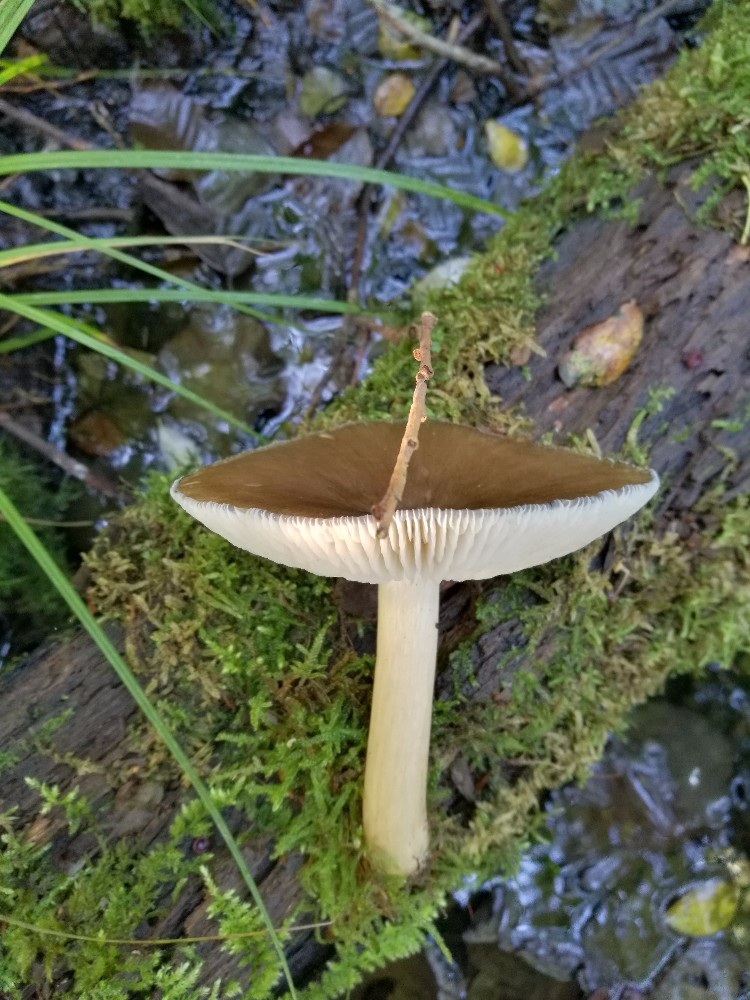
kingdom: Fungi
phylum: Basidiomycota
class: Agaricomycetes
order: Agaricales
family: Tricholomataceae
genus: Megacollybia
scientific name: Megacollybia platyphylla
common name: bredbladet væbnerhat
